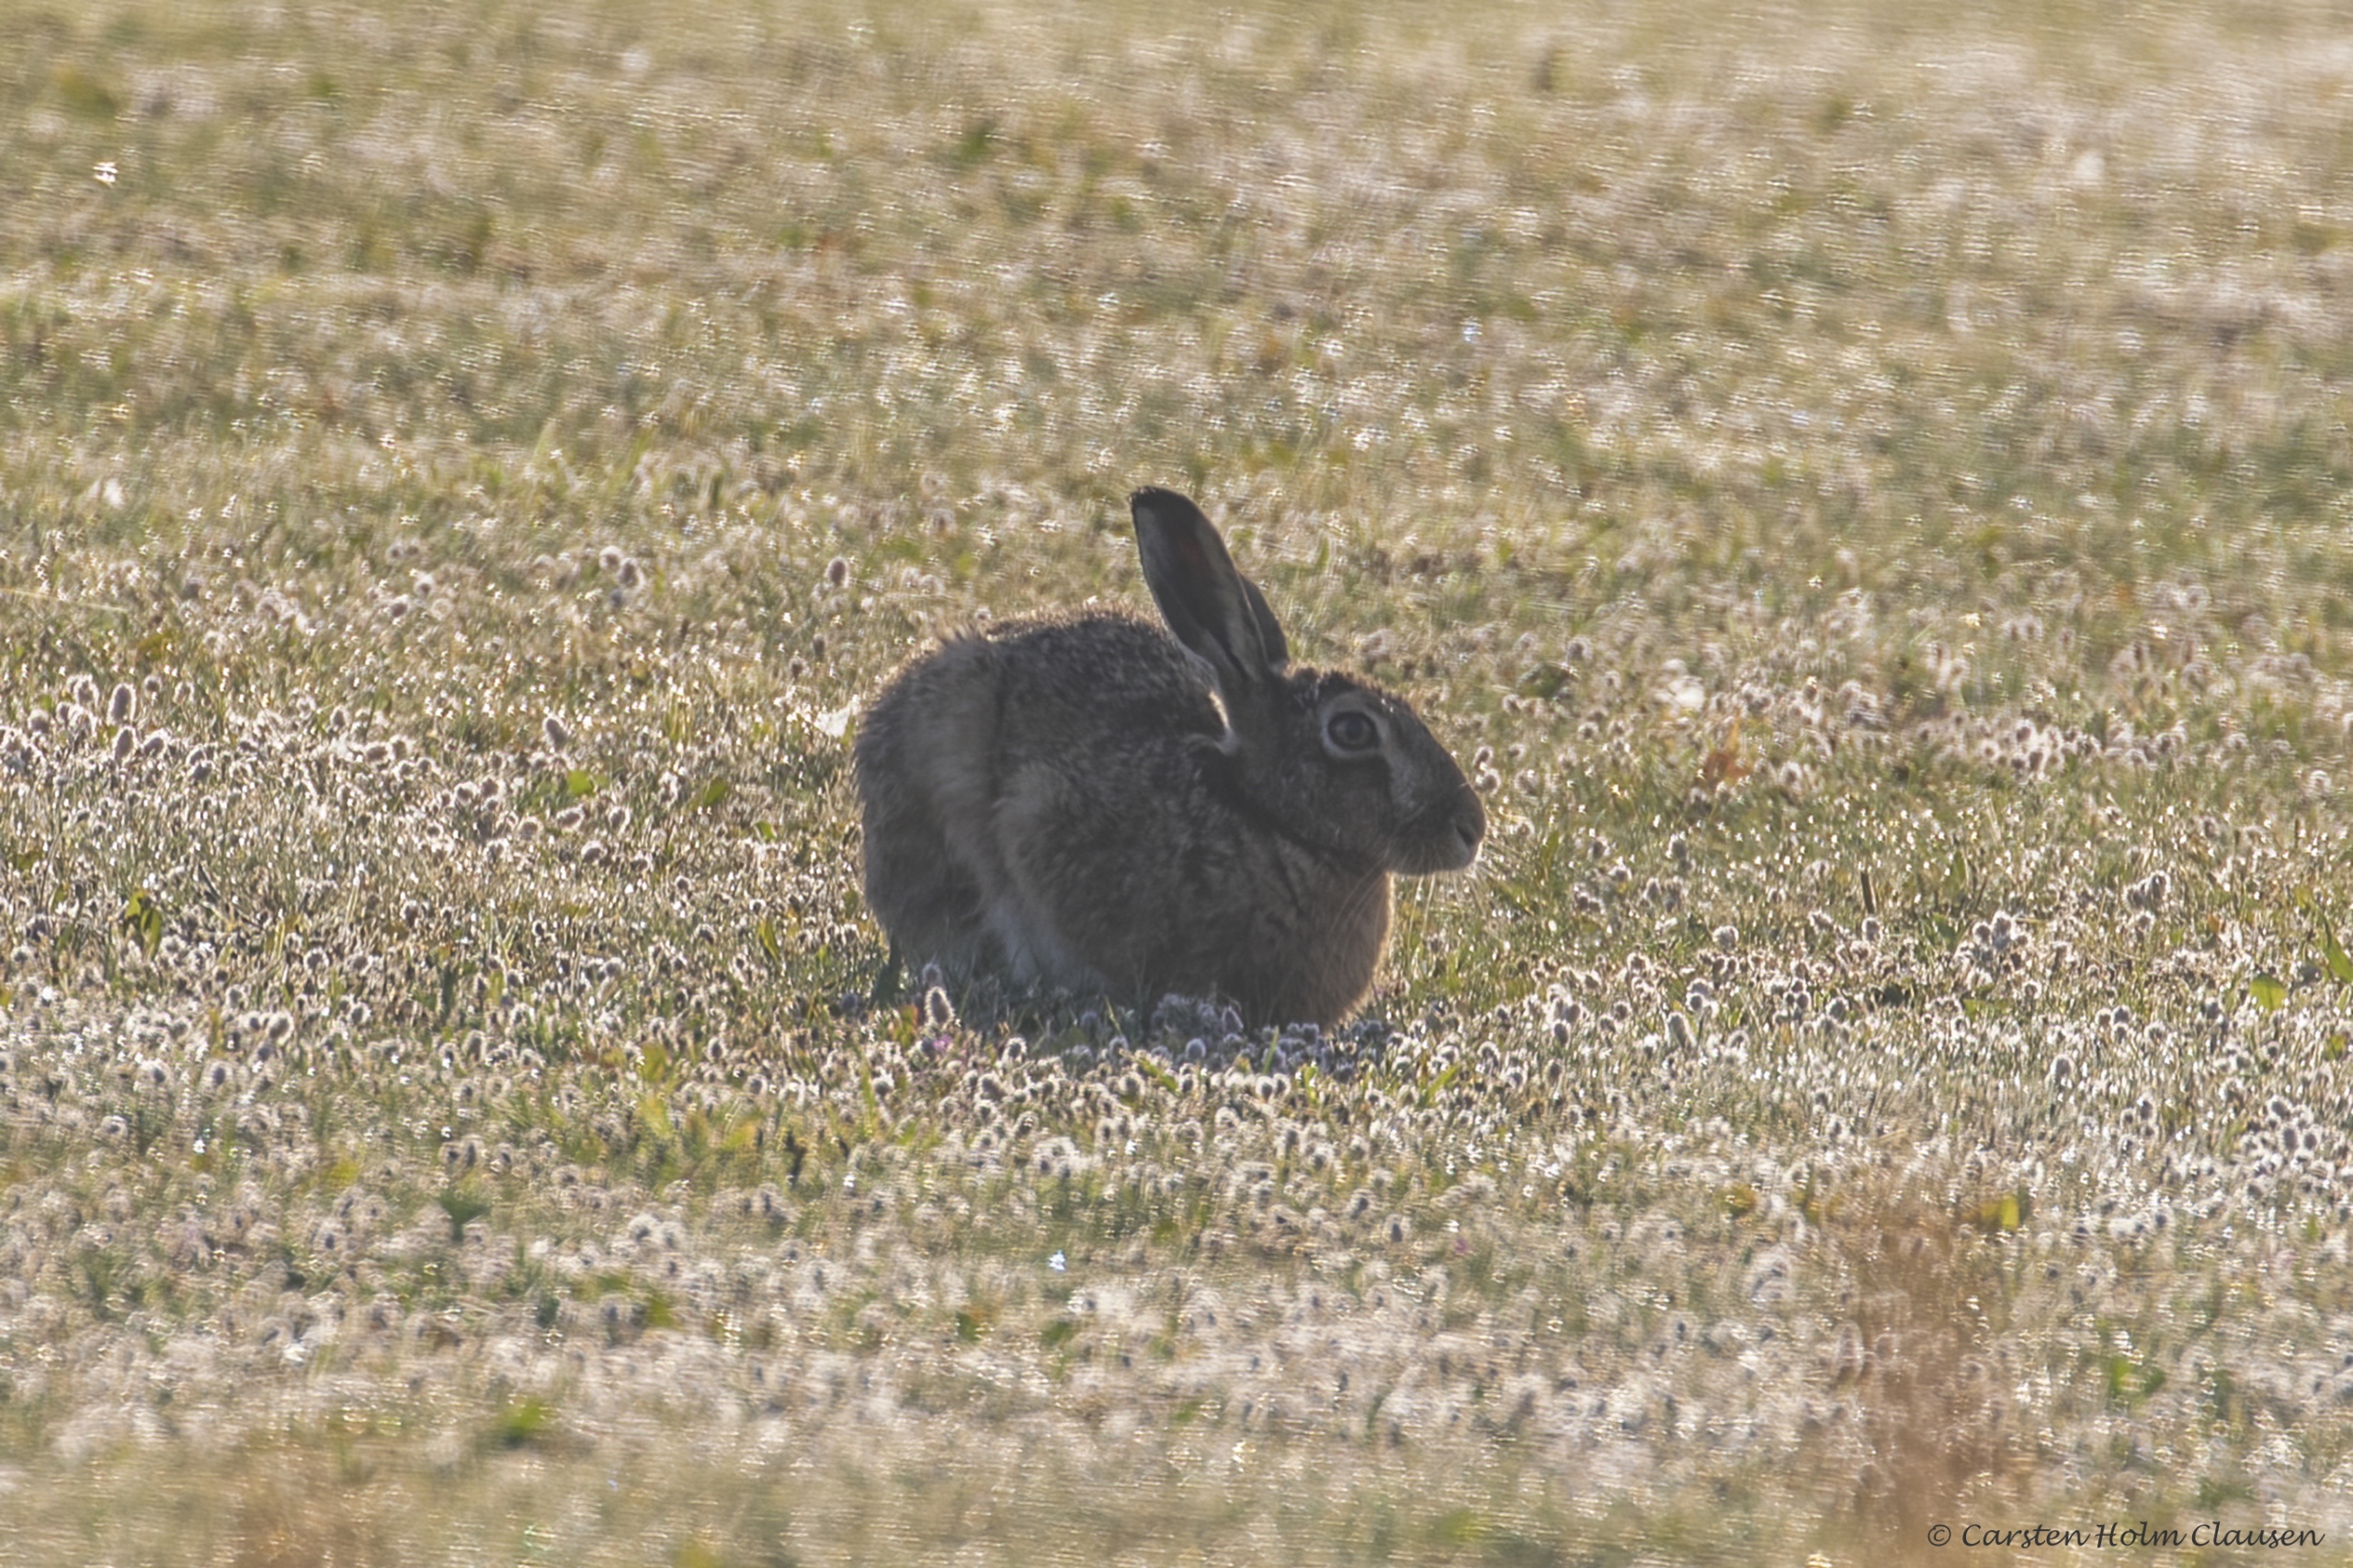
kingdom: Animalia
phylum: Chordata
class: Mammalia
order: Lagomorpha
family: Leporidae
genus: Lepus
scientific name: Lepus europaeus
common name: Hare
